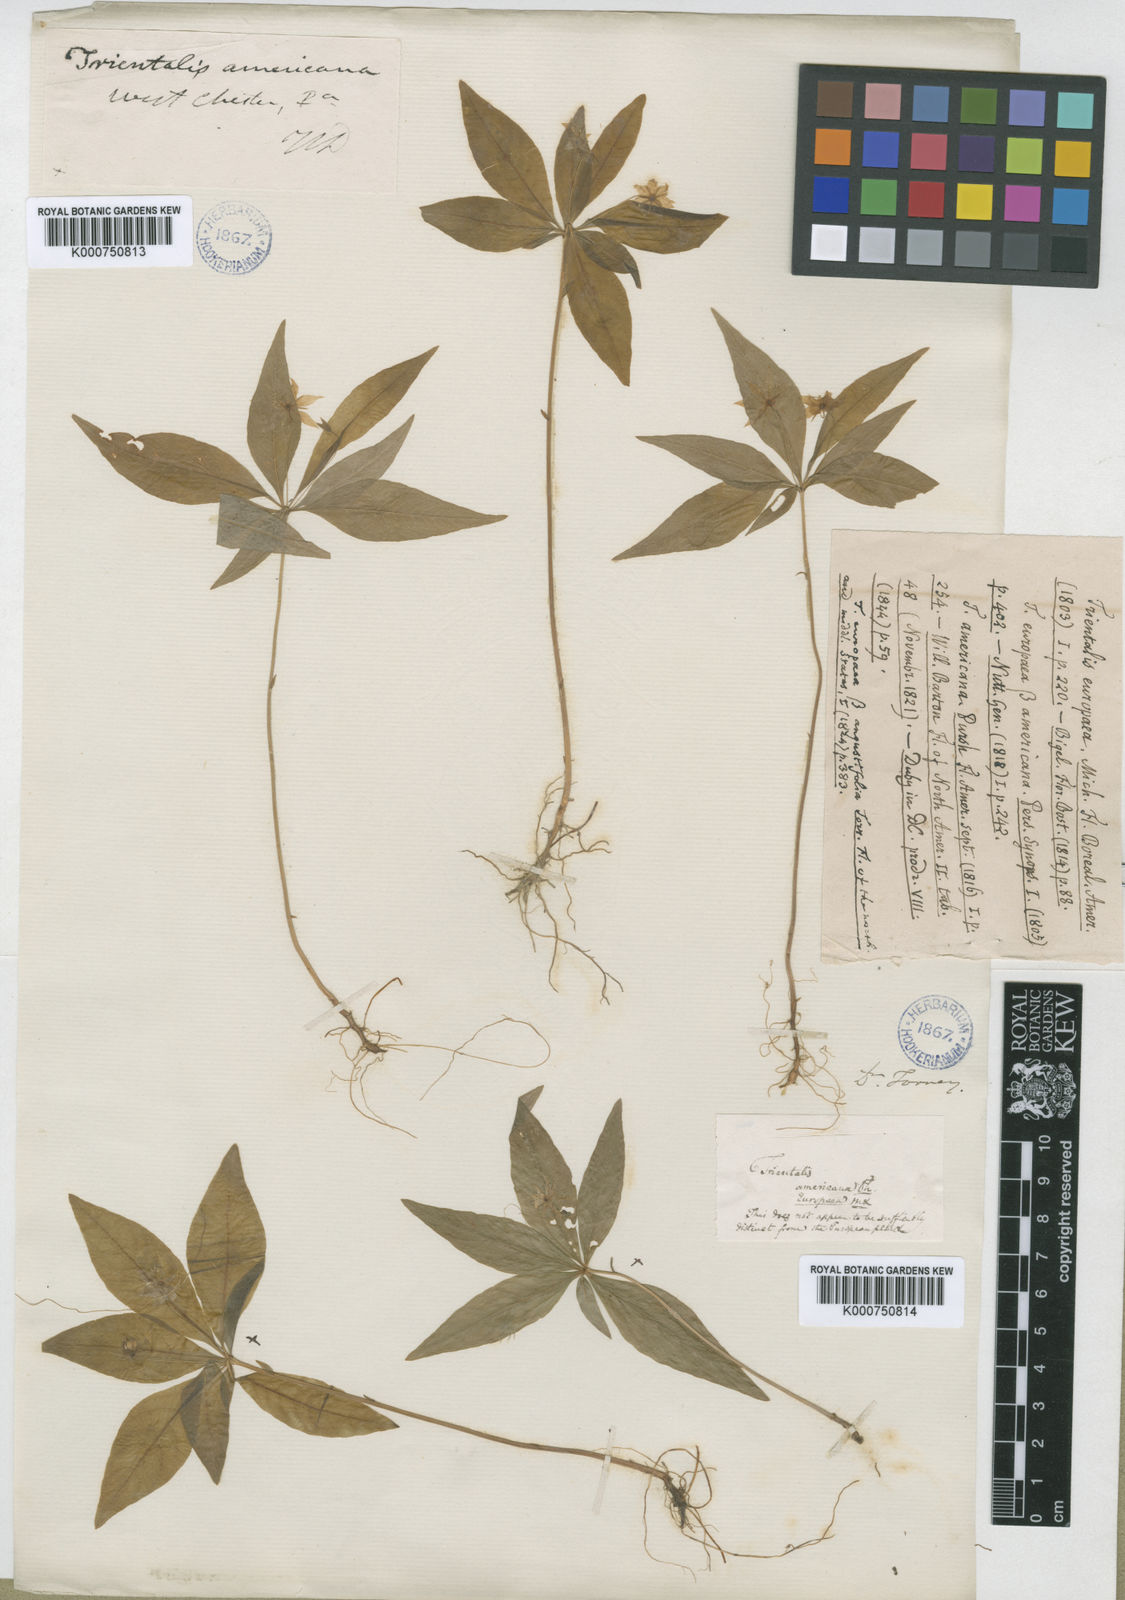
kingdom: Plantae
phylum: Tracheophyta
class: Magnoliopsida
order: Ericales
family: Primulaceae
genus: Lysimachia
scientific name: Lysimachia latifolia
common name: Pacific starflower
